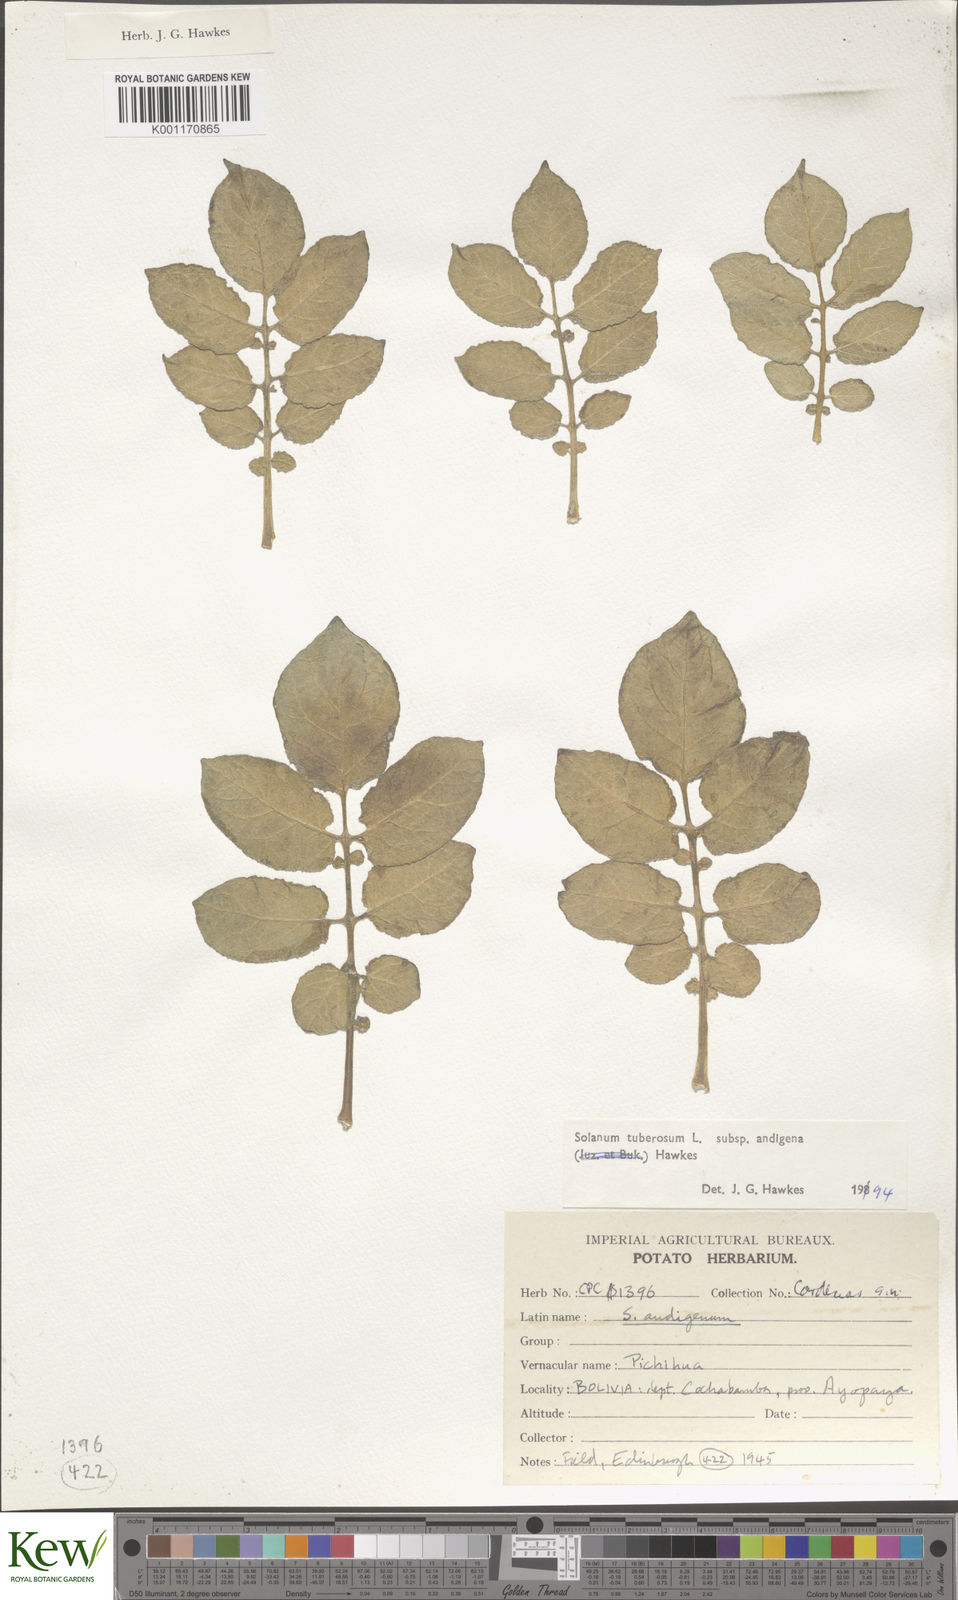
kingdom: Plantae
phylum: Tracheophyta
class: Magnoliopsida
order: Solanales
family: Solanaceae
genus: Solanum
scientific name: Solanum tuberosum
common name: Potato
